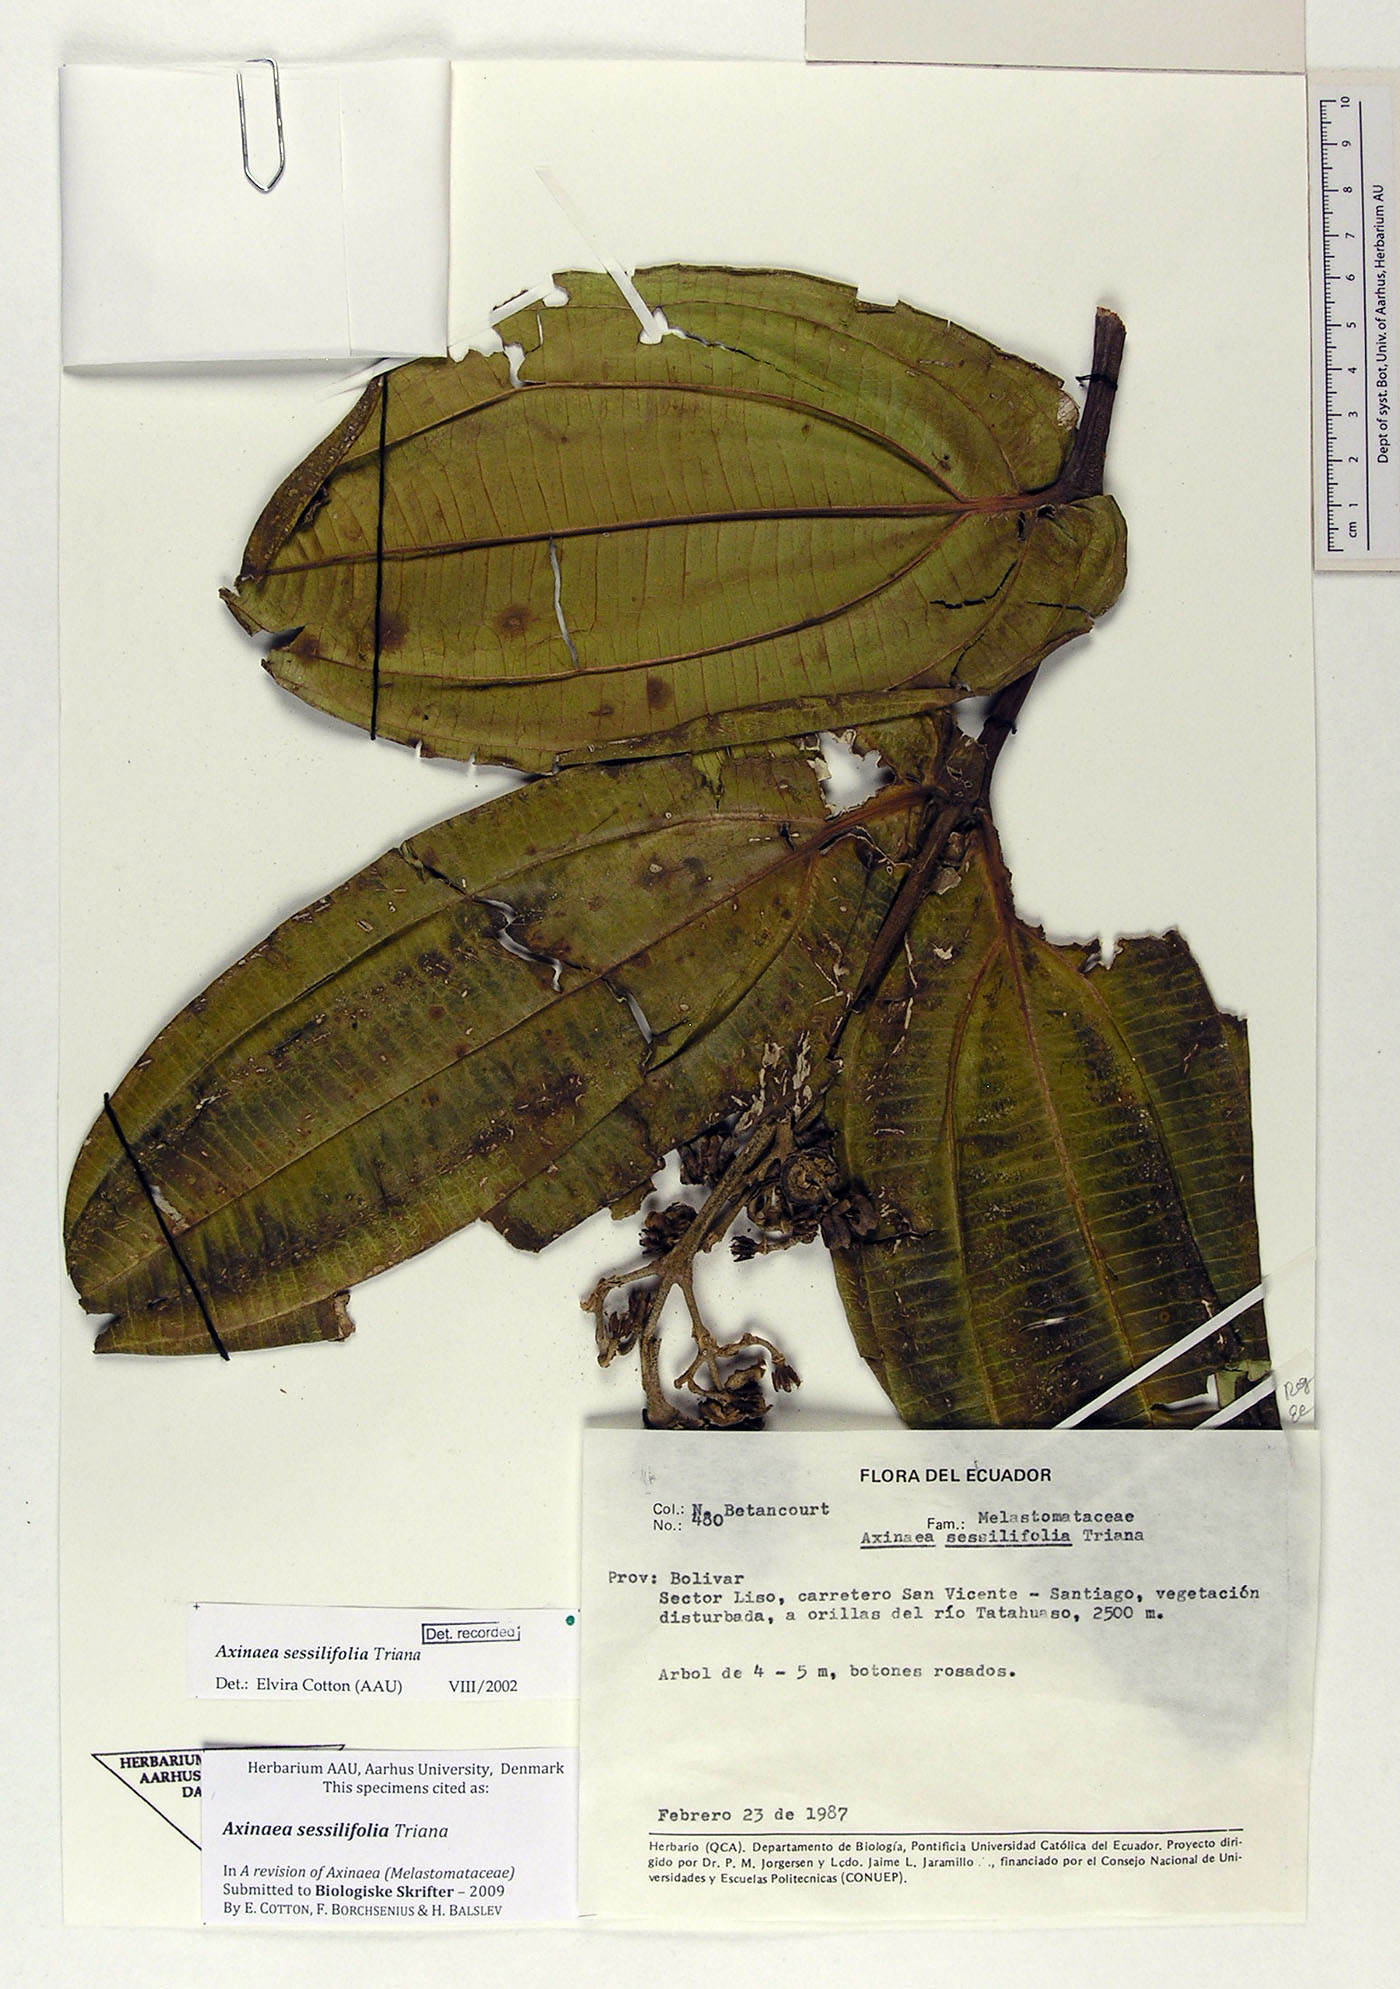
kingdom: Plantae
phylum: Tracheophyta
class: Magnoliopsida
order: Myrtales
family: Melastomataceae
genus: Axinaea
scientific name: Axinaea sessilifolia
